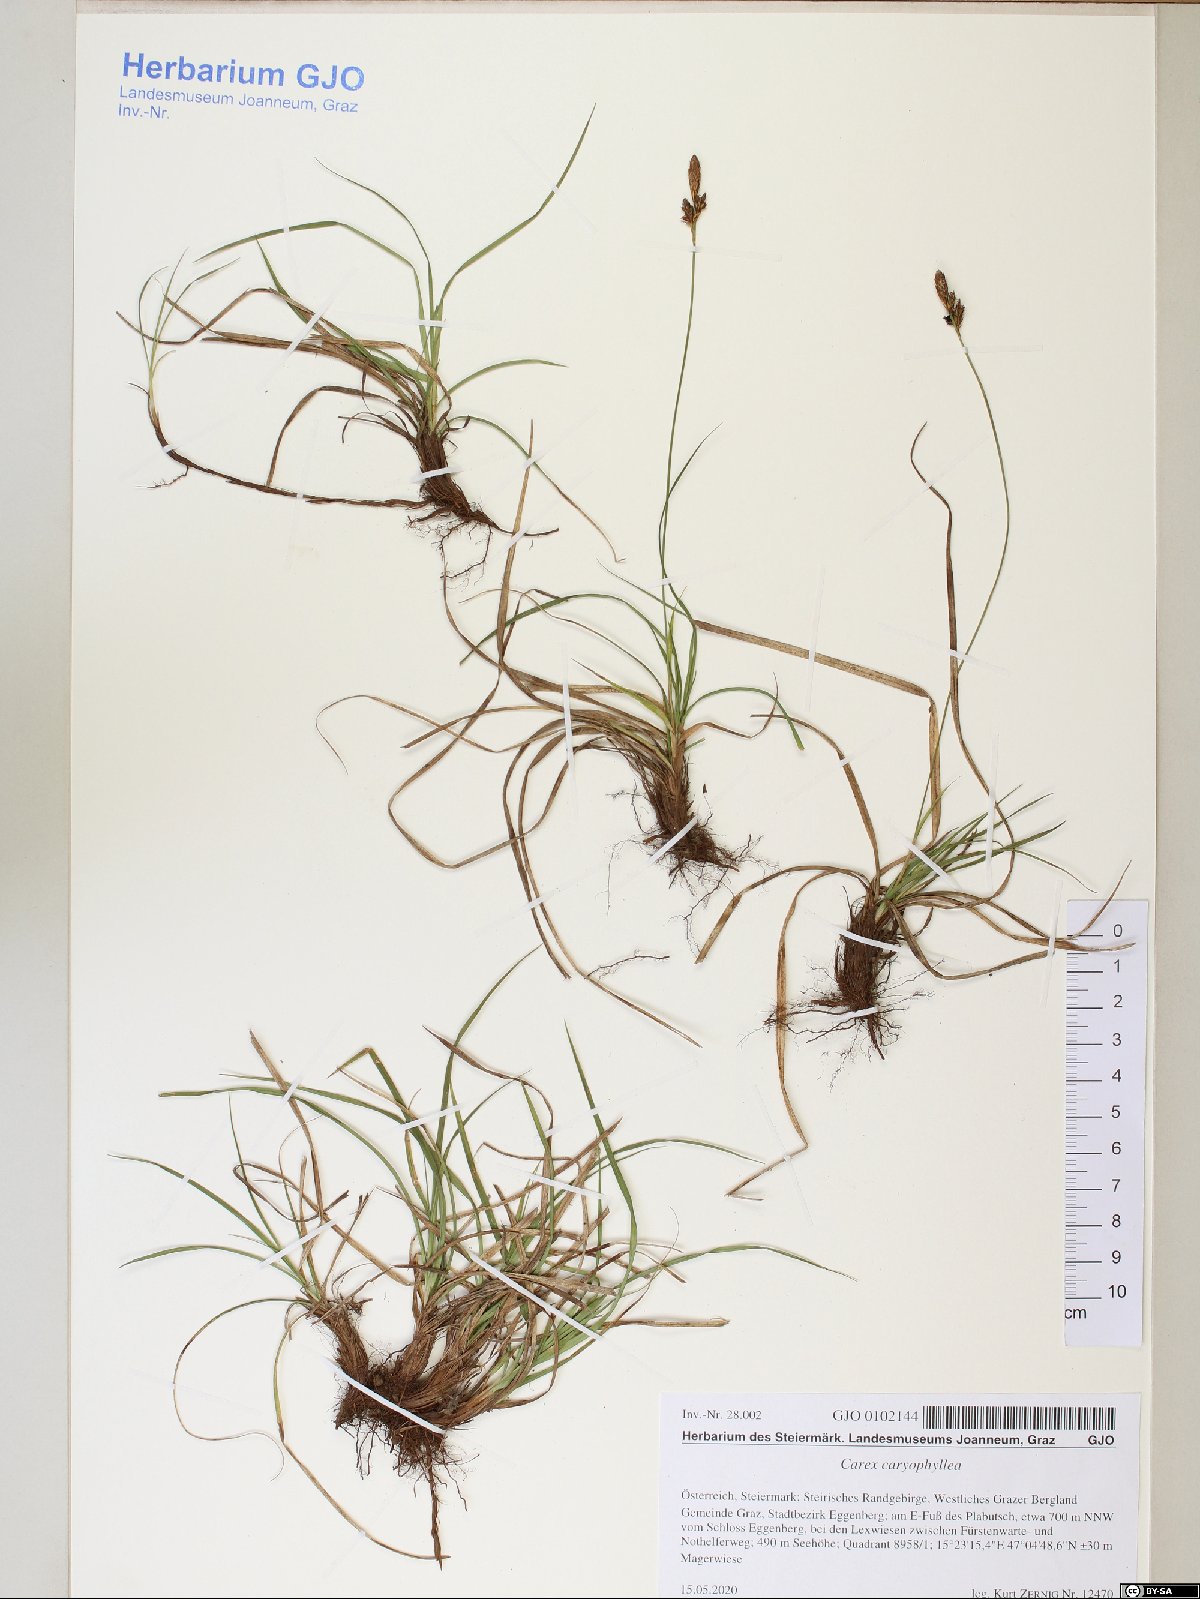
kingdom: Plantae
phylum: Tracheophyta
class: Liliopsida
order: Poales
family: Cyperaceae
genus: Carex
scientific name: Carex caryophyllea
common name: Spring sedge
